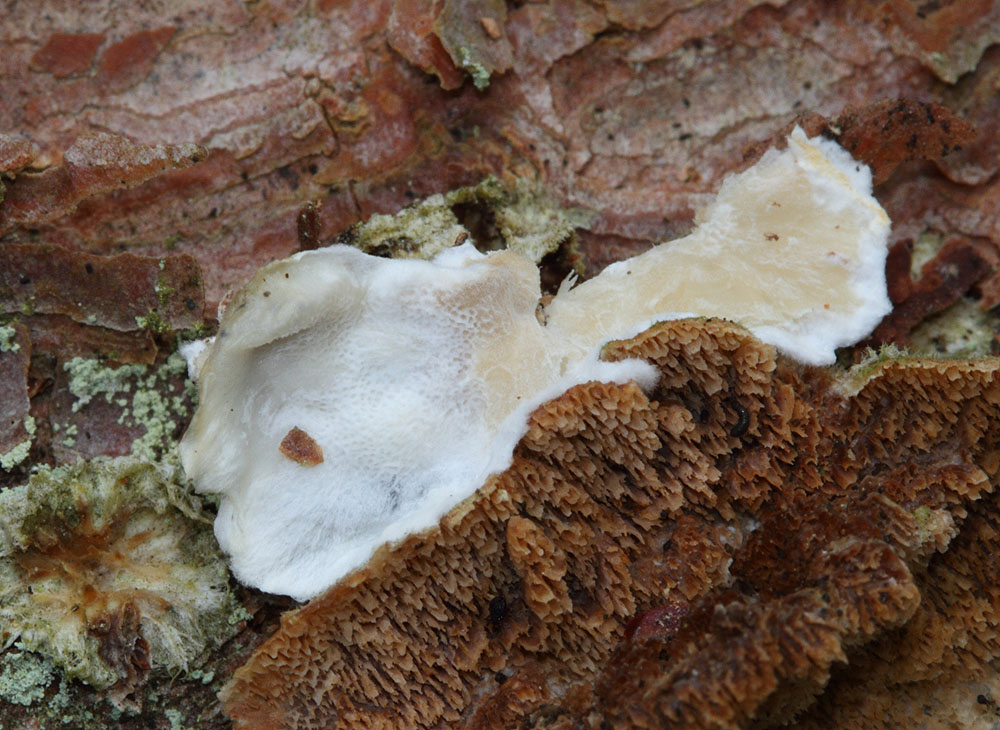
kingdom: Fungi
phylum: Basidiomycota
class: Agaricomycetes
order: Polyporales
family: Incrustoporiaceae
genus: Skeletocutis
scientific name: Skeletocutis carneogrisea
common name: rødgrå krystalporesvamp
